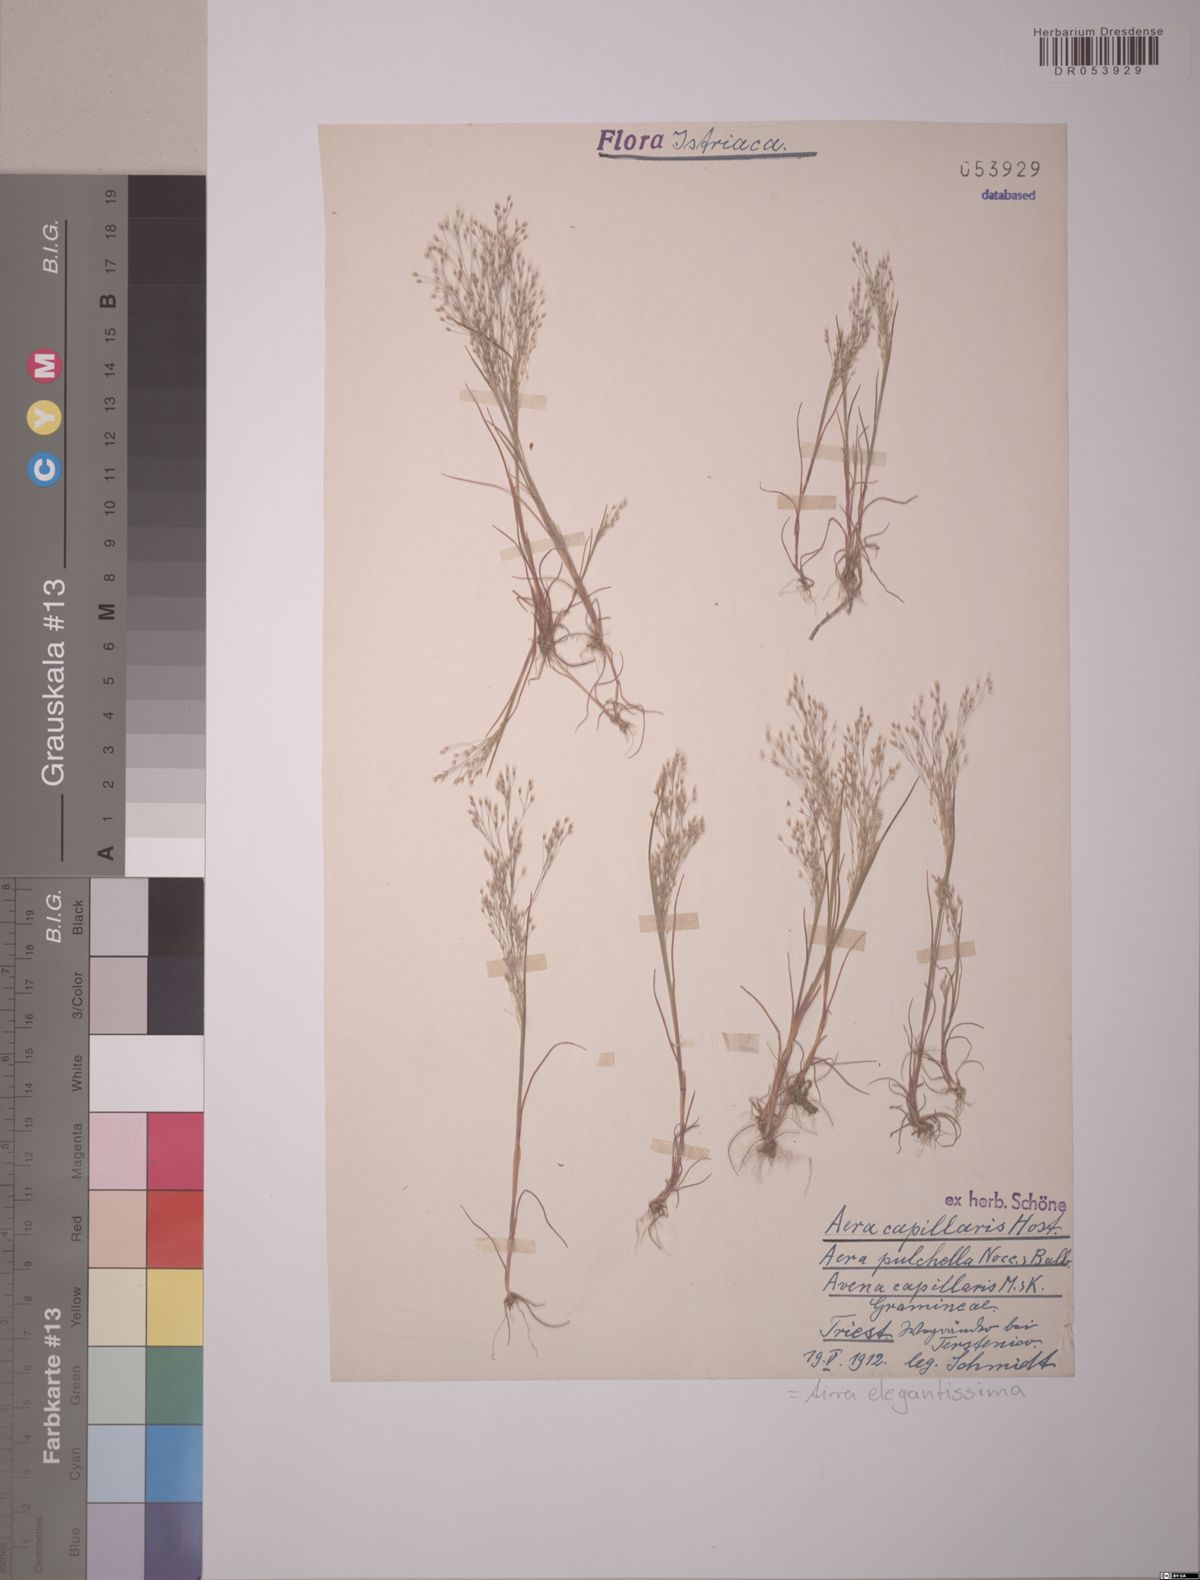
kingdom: Plantae
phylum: Tracheophyta
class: Liliopsida
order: Poales
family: Poaceae
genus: Aira
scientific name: Aira elegans
